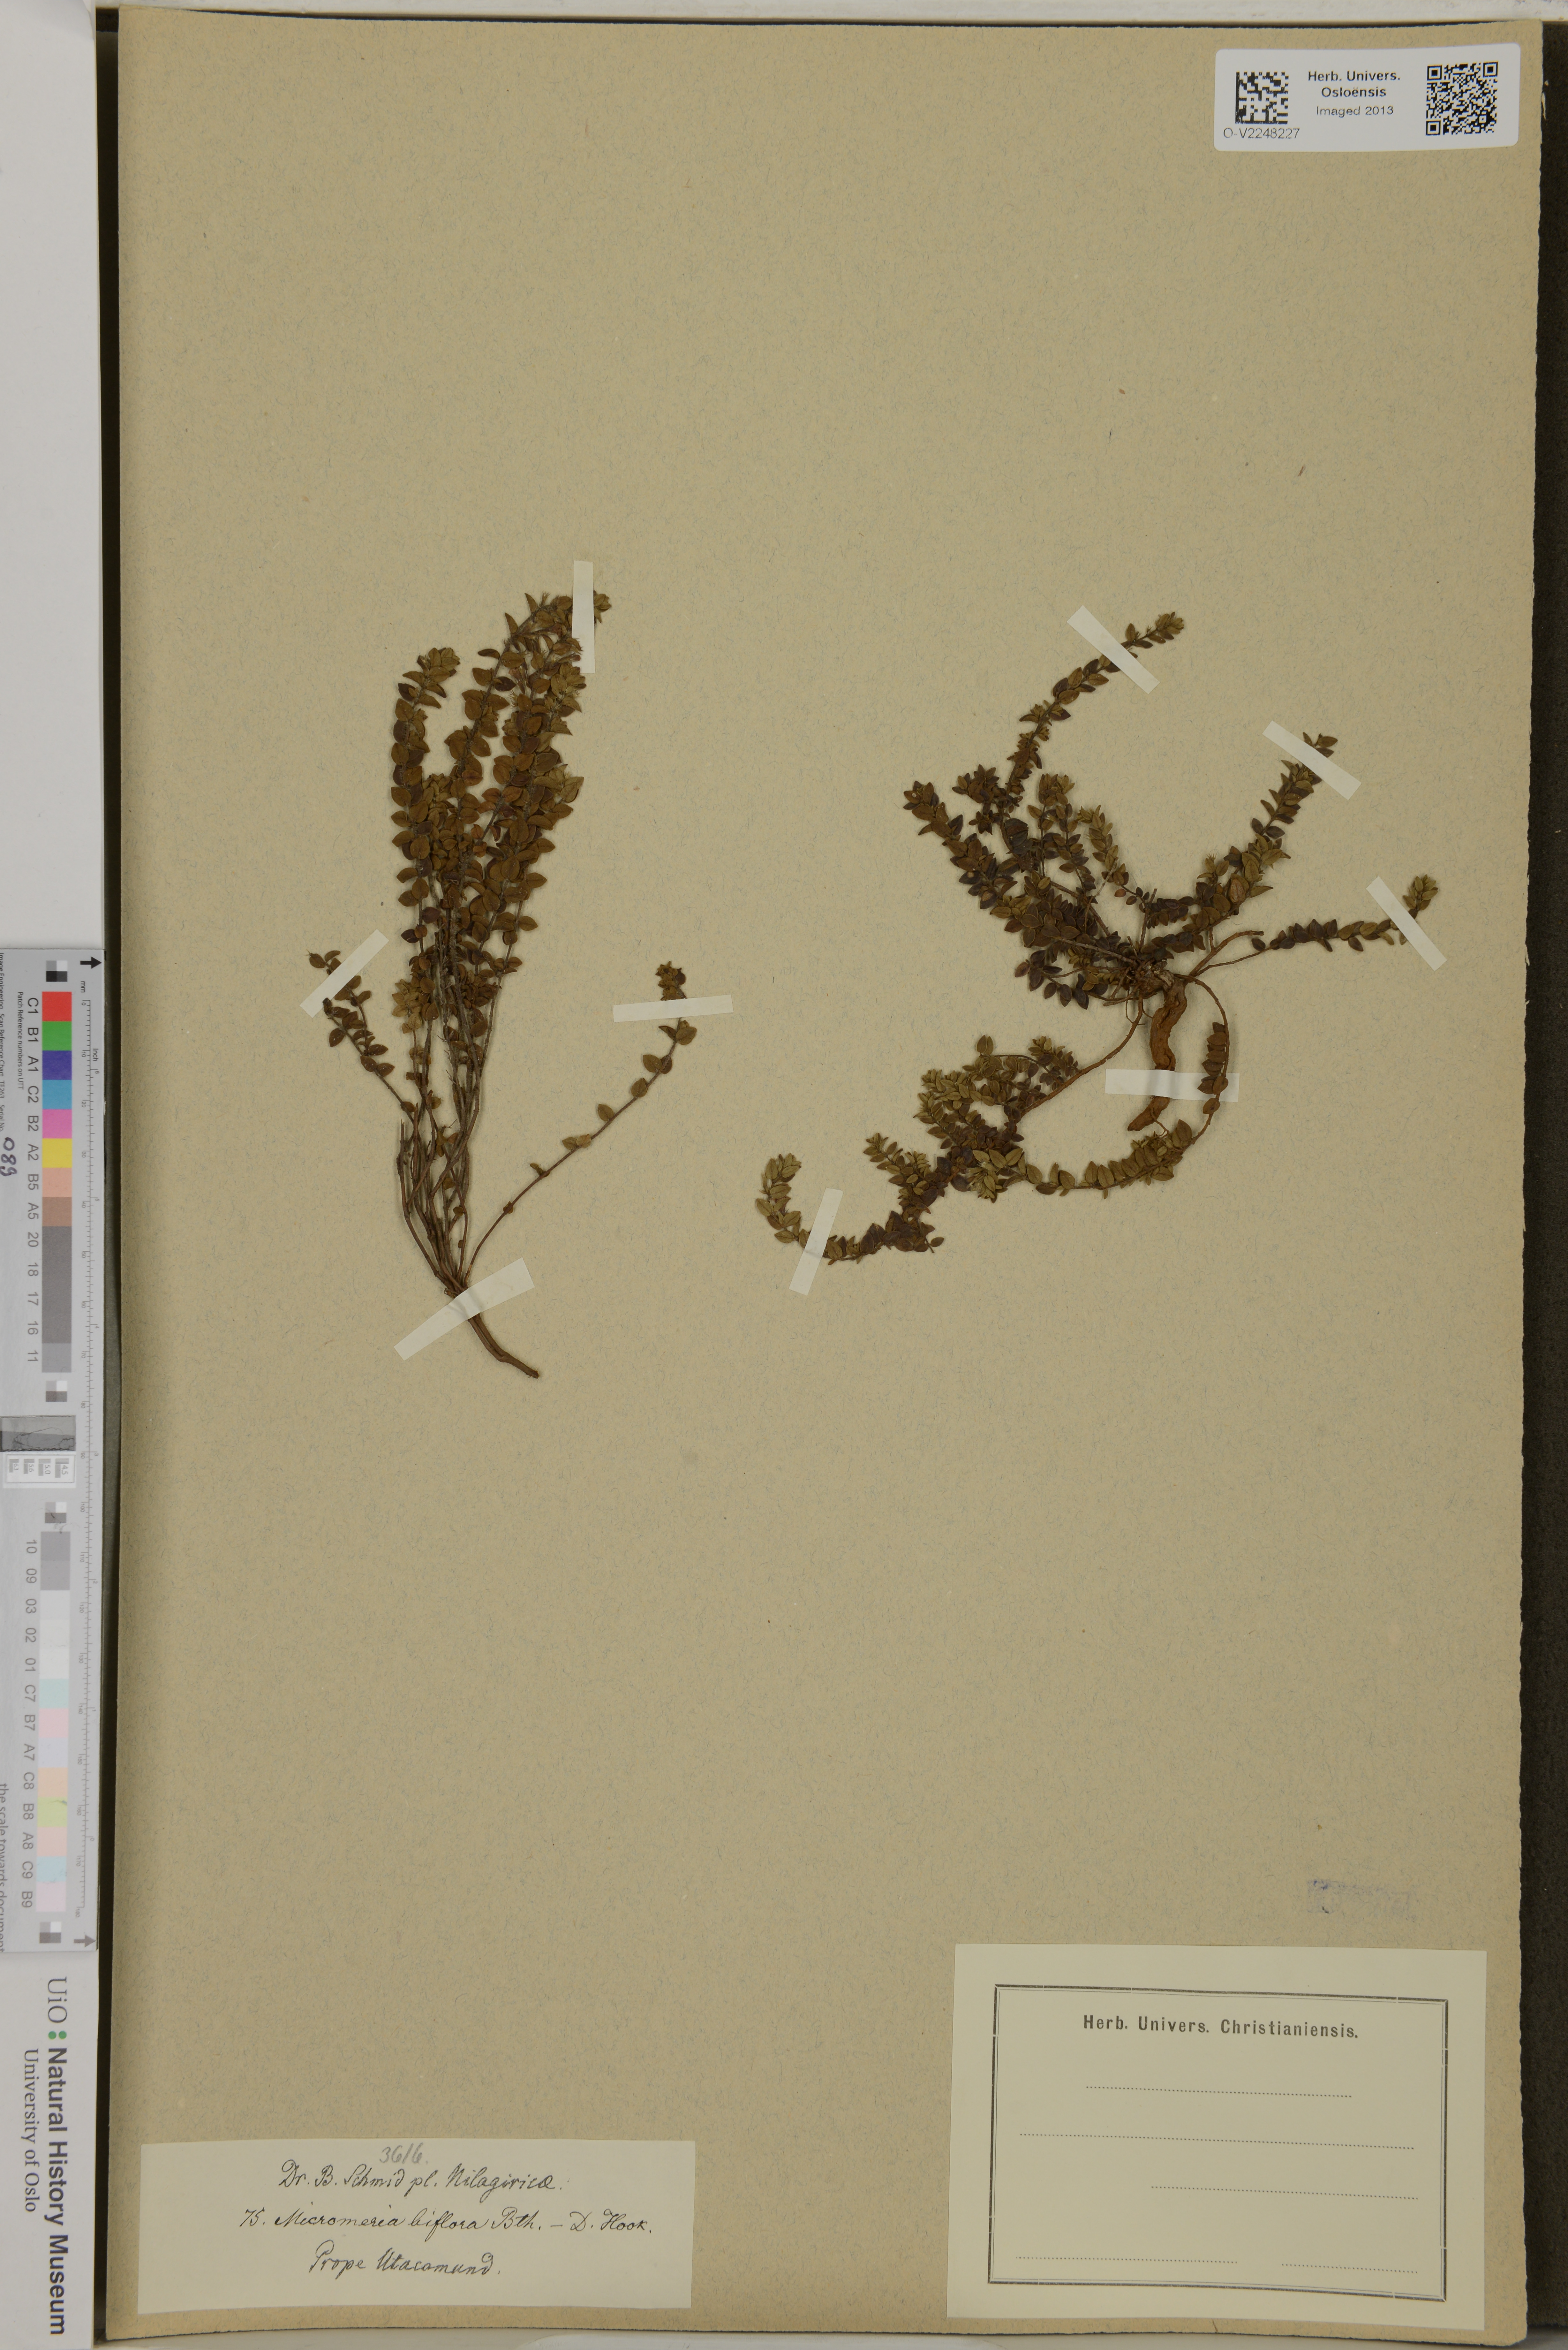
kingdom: Plantae
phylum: Tracheophyta
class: Magnoliopsida
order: Lamiales
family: Lamiaceae
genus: Micromeria
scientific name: Micromeria biflora
